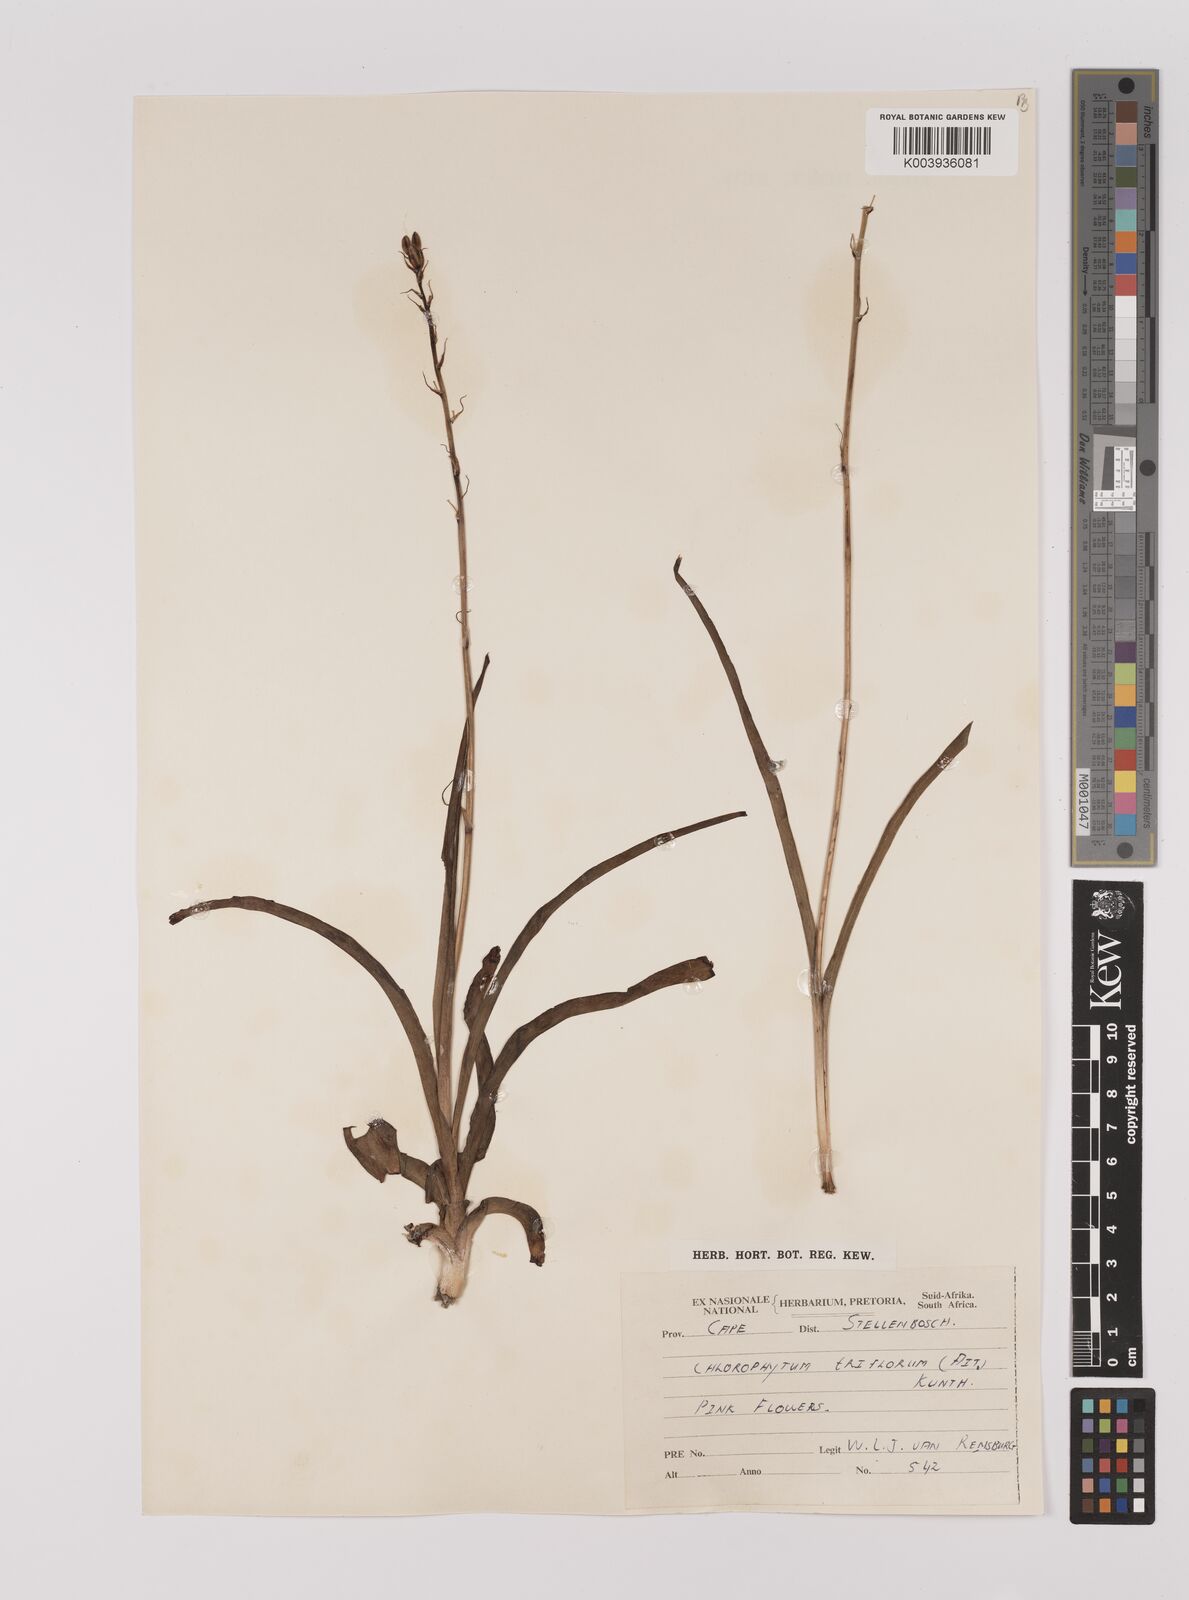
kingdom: Plantae
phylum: Tracheophyta
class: Liliopsida
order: Asparagales
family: Asparagaceae
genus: Chlorophytum
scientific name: Chlorophytum triflorum
